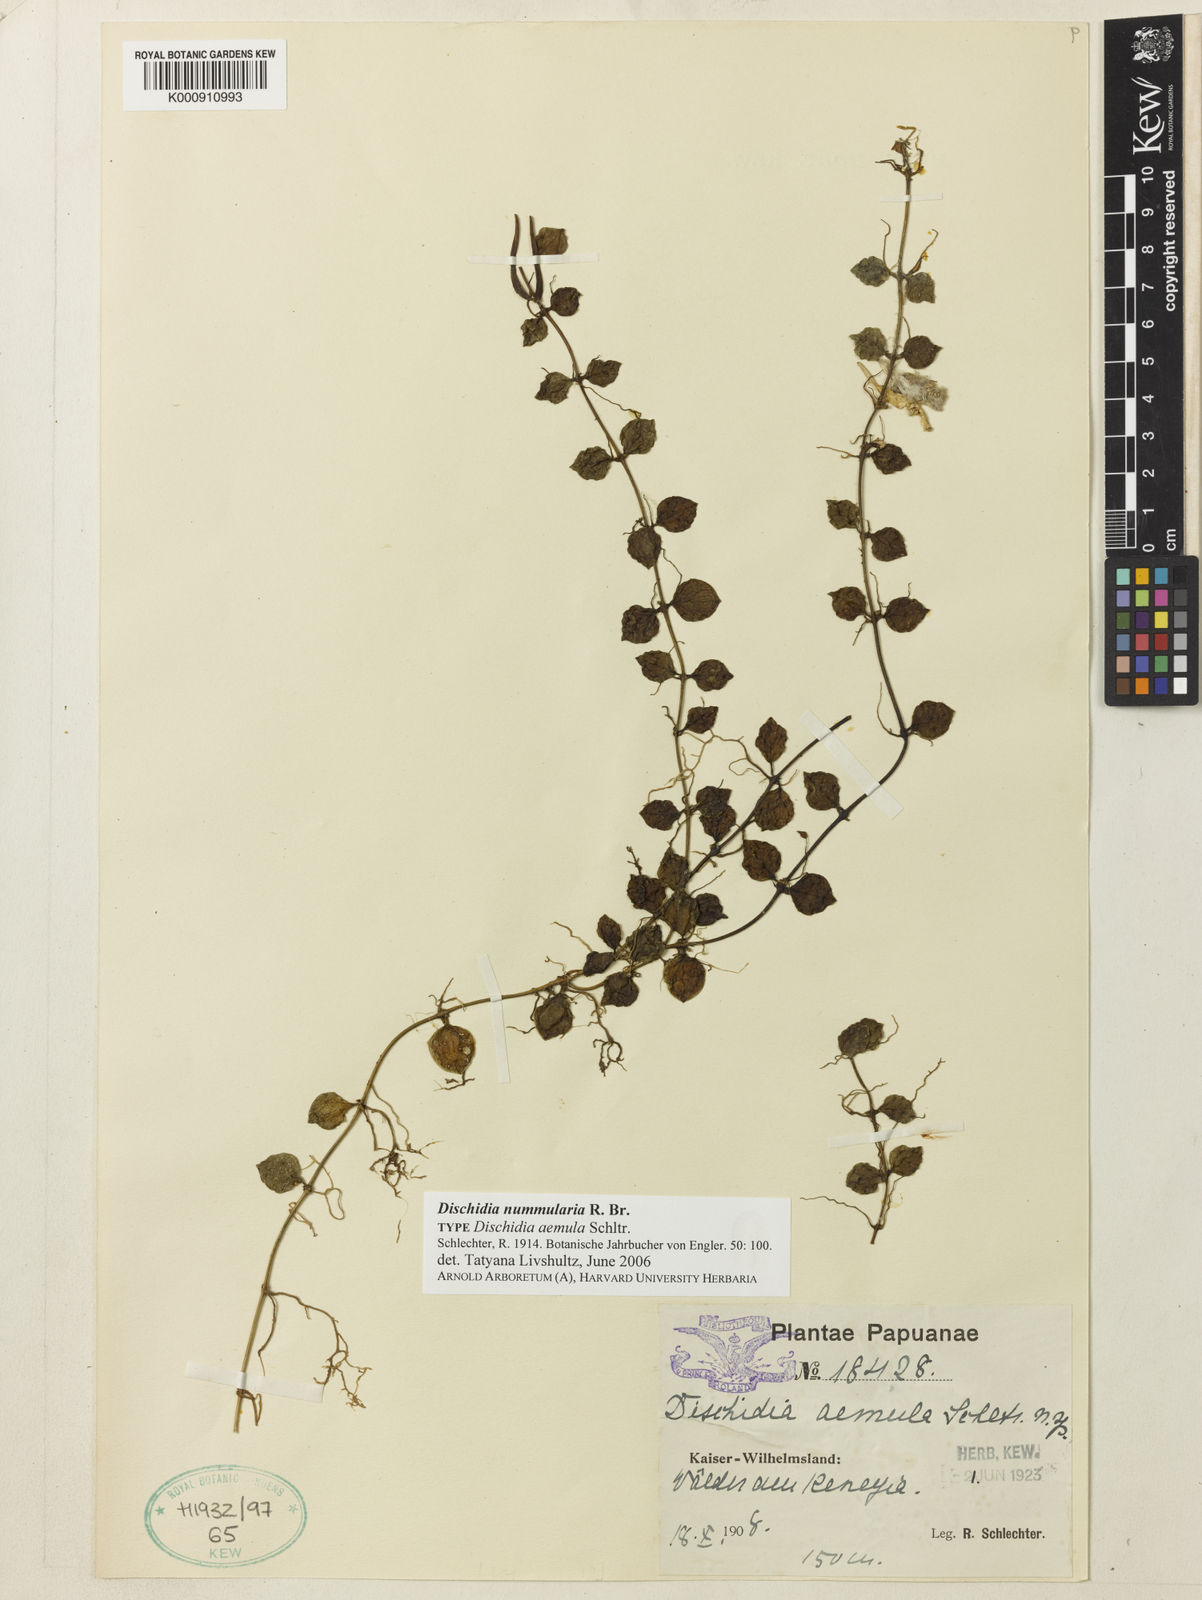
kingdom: Plantae
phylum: Tracheophyta
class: Magnoliopsida
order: Gentianales
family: Apocynaceae
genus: Dischidia
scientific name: Dischidia nummularia
